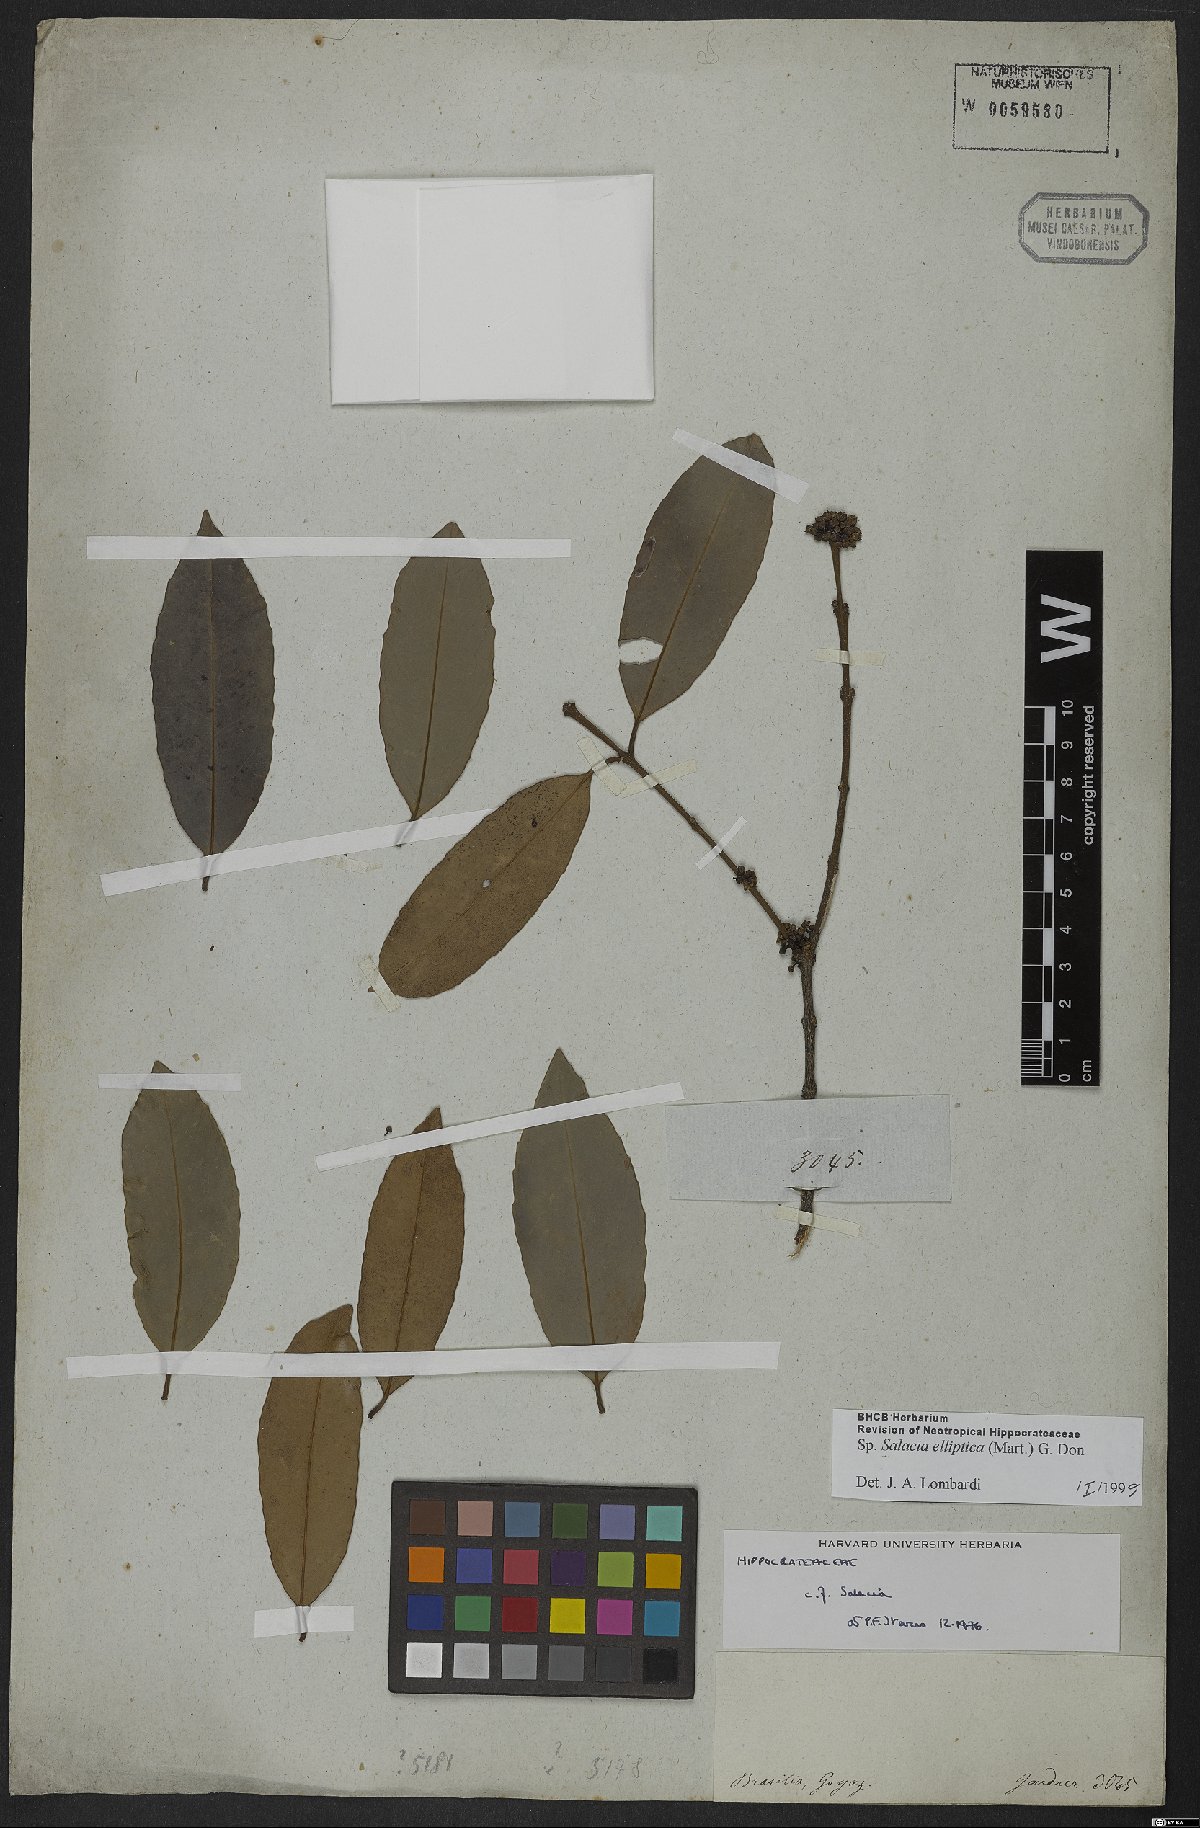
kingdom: Plantae
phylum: Tracheophyta
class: Magnoliopsida
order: Celastrales
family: Celastraceae
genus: Salacia
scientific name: Salacia elliptica
